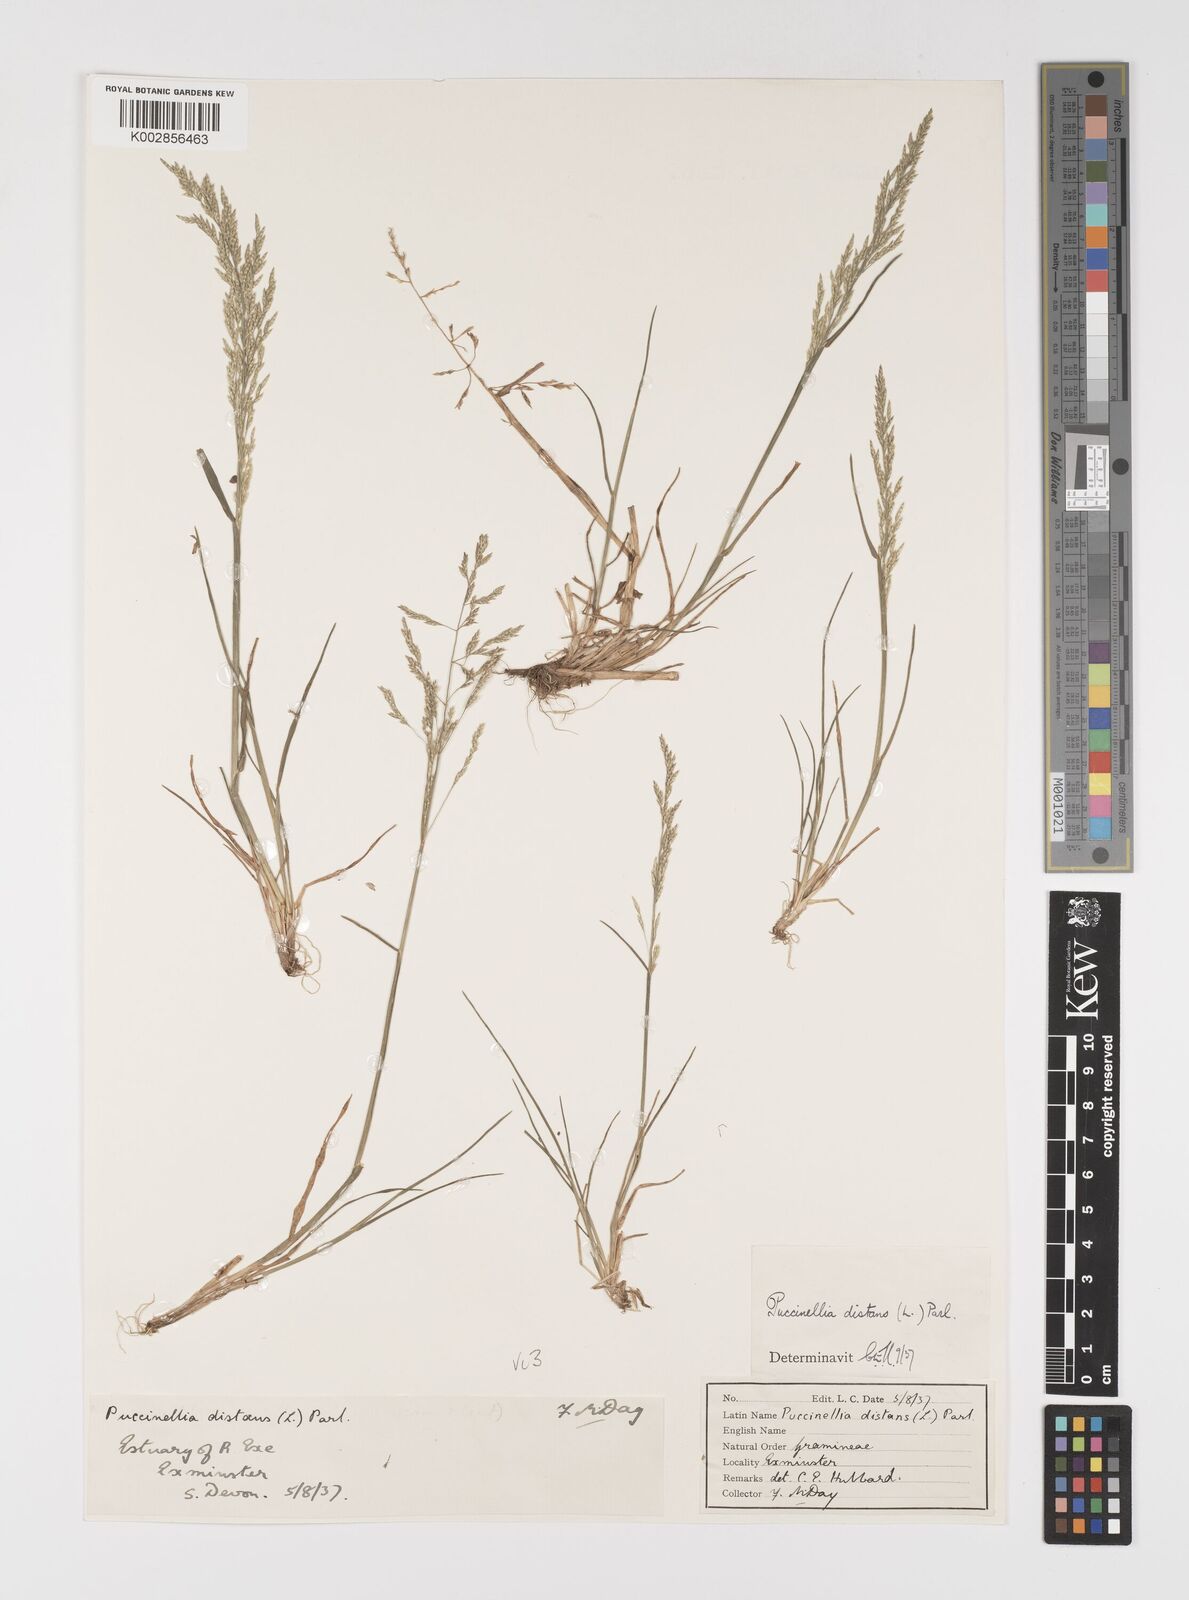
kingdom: Plantae
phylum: Tracheophyta
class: Liliopsida
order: Poales
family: Poaceae
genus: Puccinellia
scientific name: Puccinellia distans
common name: Weeping alkaligrass
